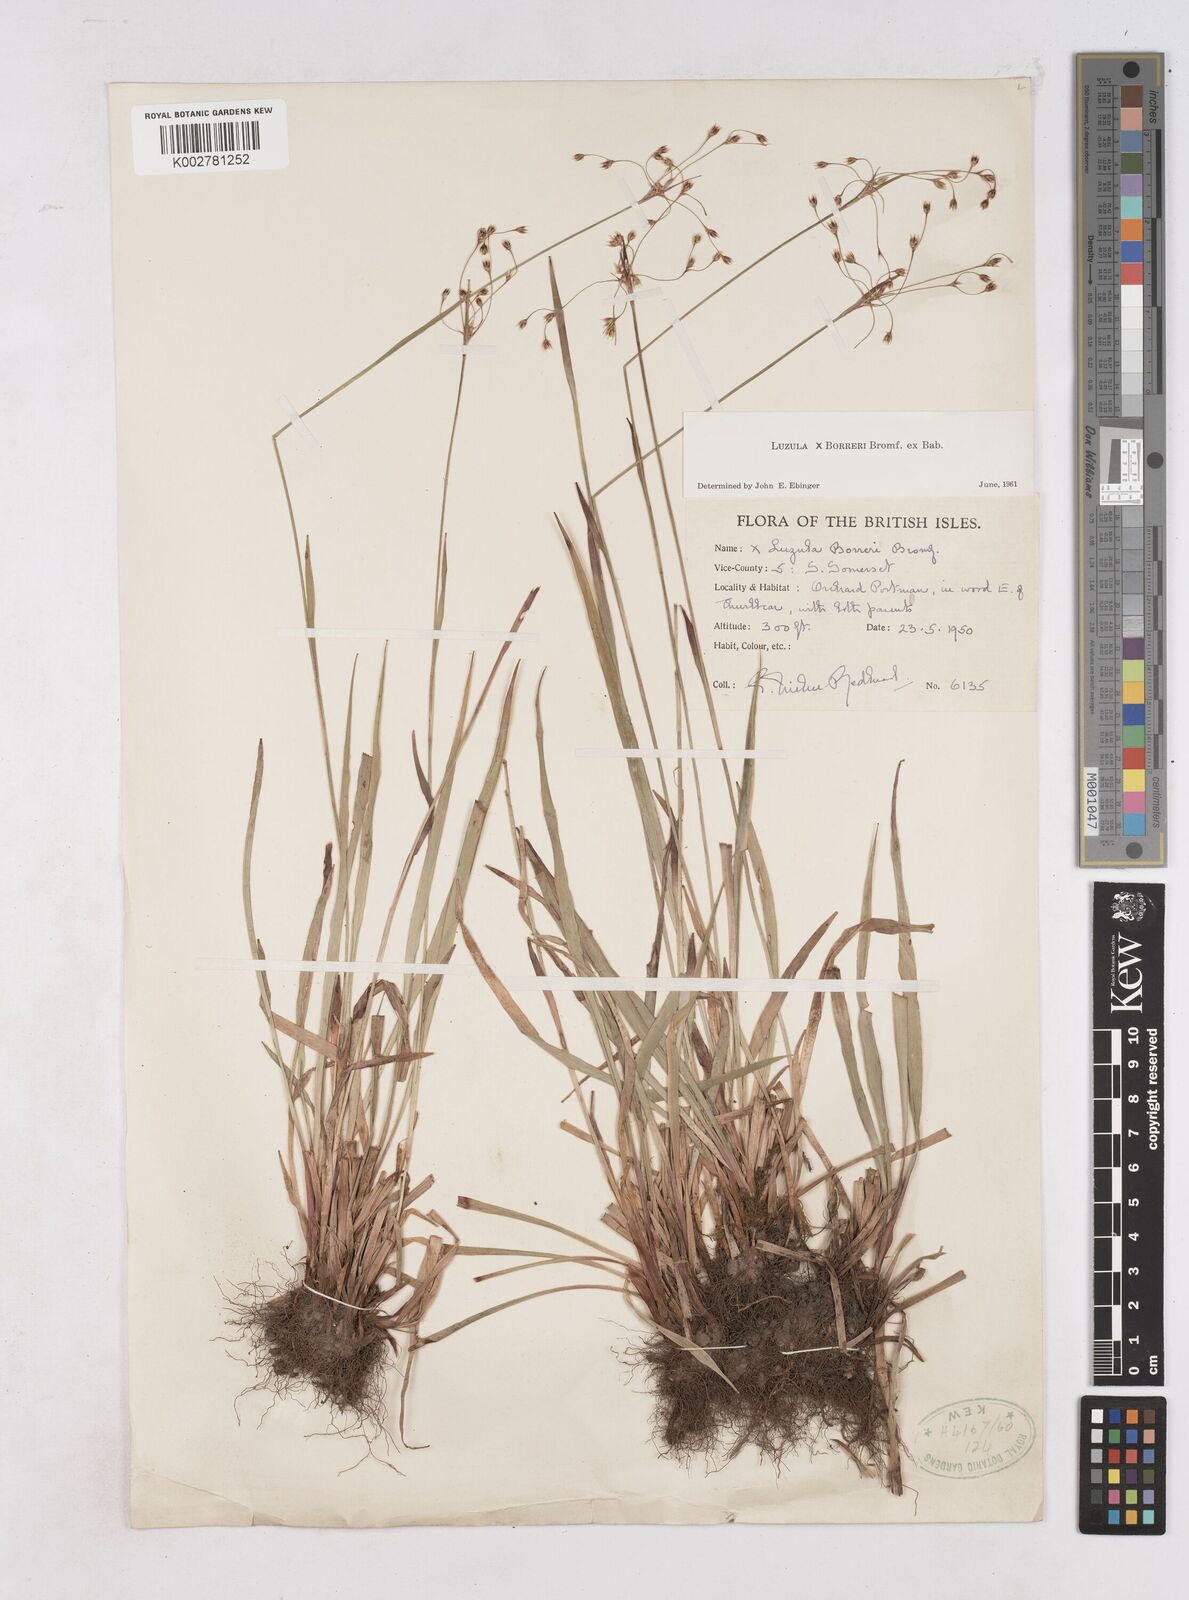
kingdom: Plantae
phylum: Tracheophyta
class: Liliopsida
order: Poales
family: Juncaceae
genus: Luzula
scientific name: Luzula forsteri
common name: Southern wood-rush
